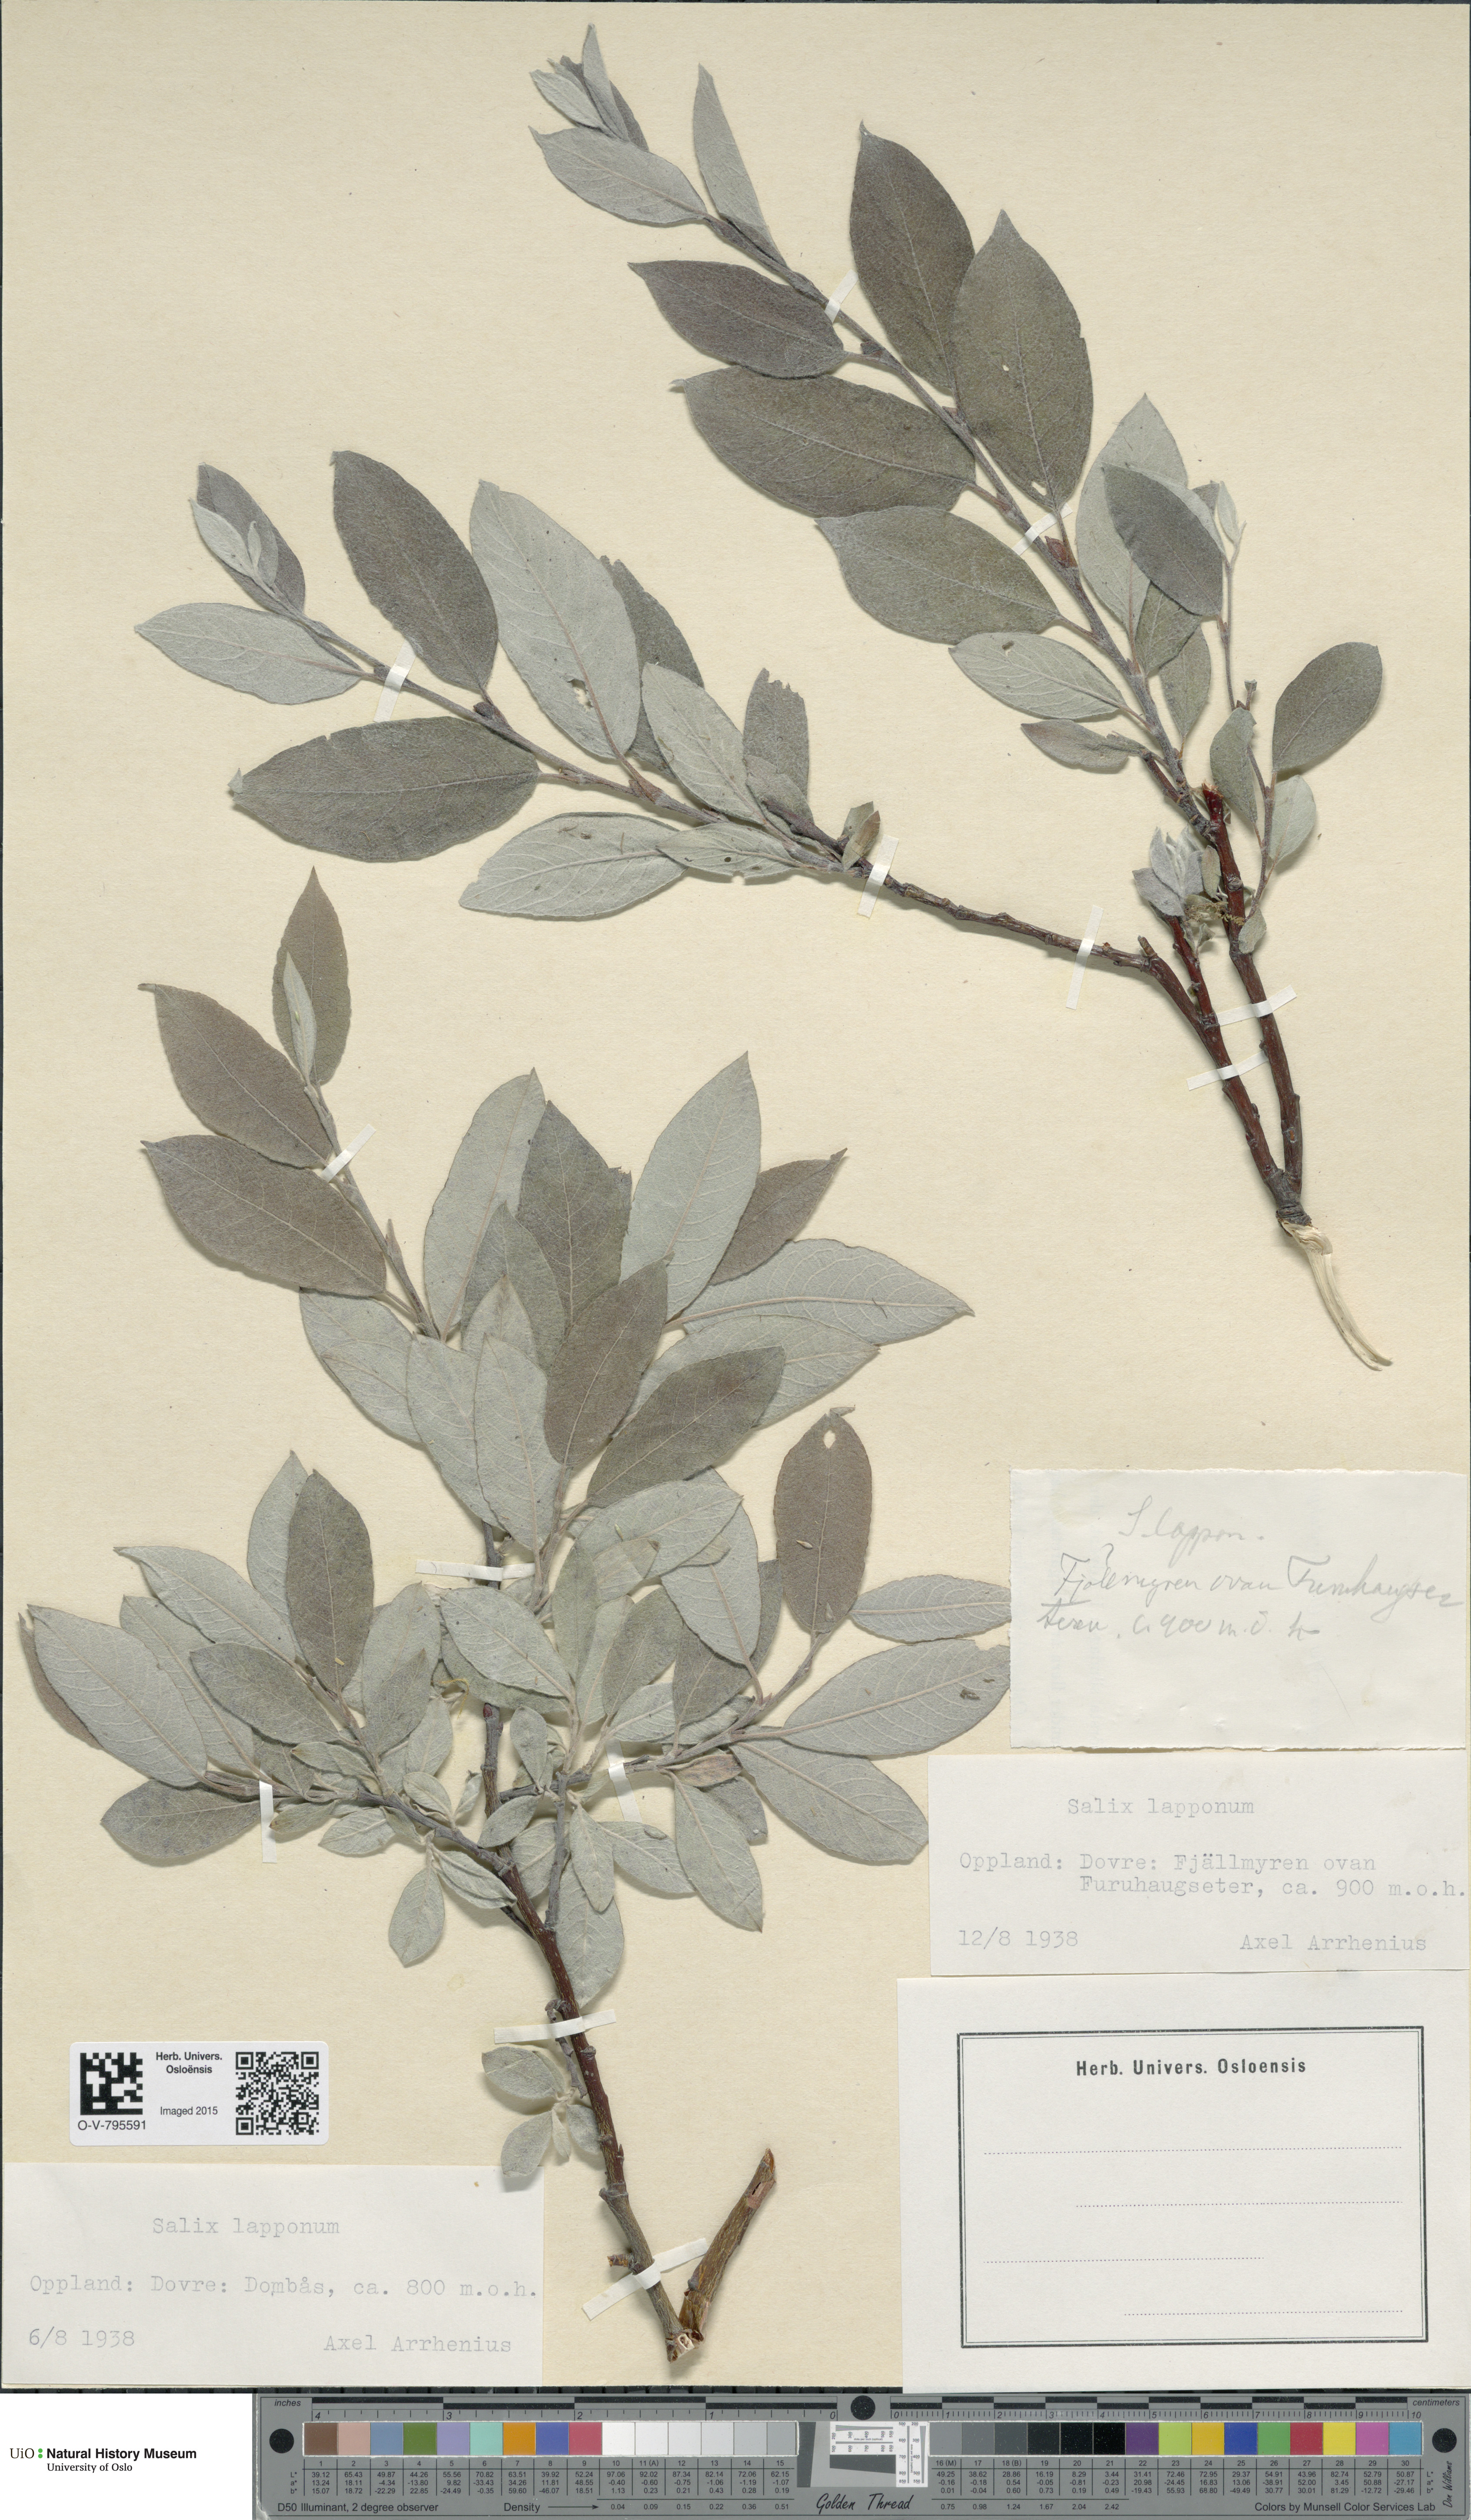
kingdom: Plantae
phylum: Tracheophyta
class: Magnoliopsida
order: Malpighiales
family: Salicaceae
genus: Salix
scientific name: Salix lapponum
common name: Downy willow
